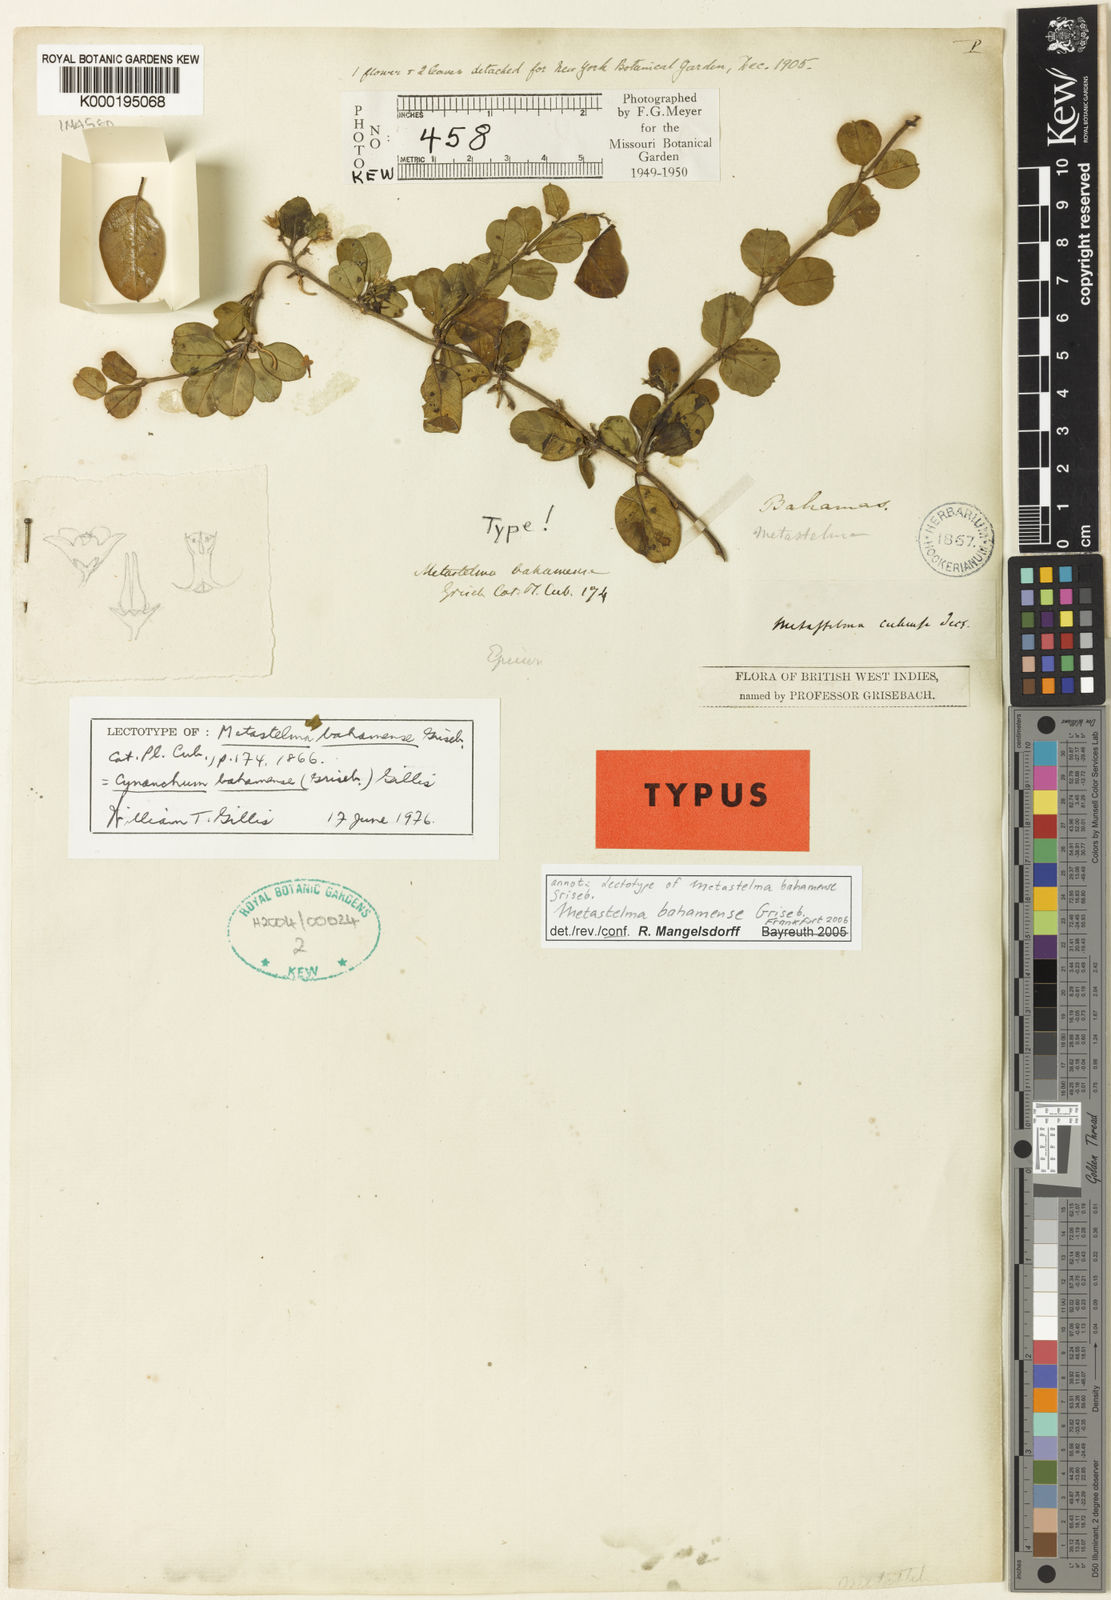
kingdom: Plantae
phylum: Tracheophyta
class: Magnoliopsida
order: Gentianales
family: Apocynaceae
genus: Metastelma
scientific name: Metastelma bahamense
